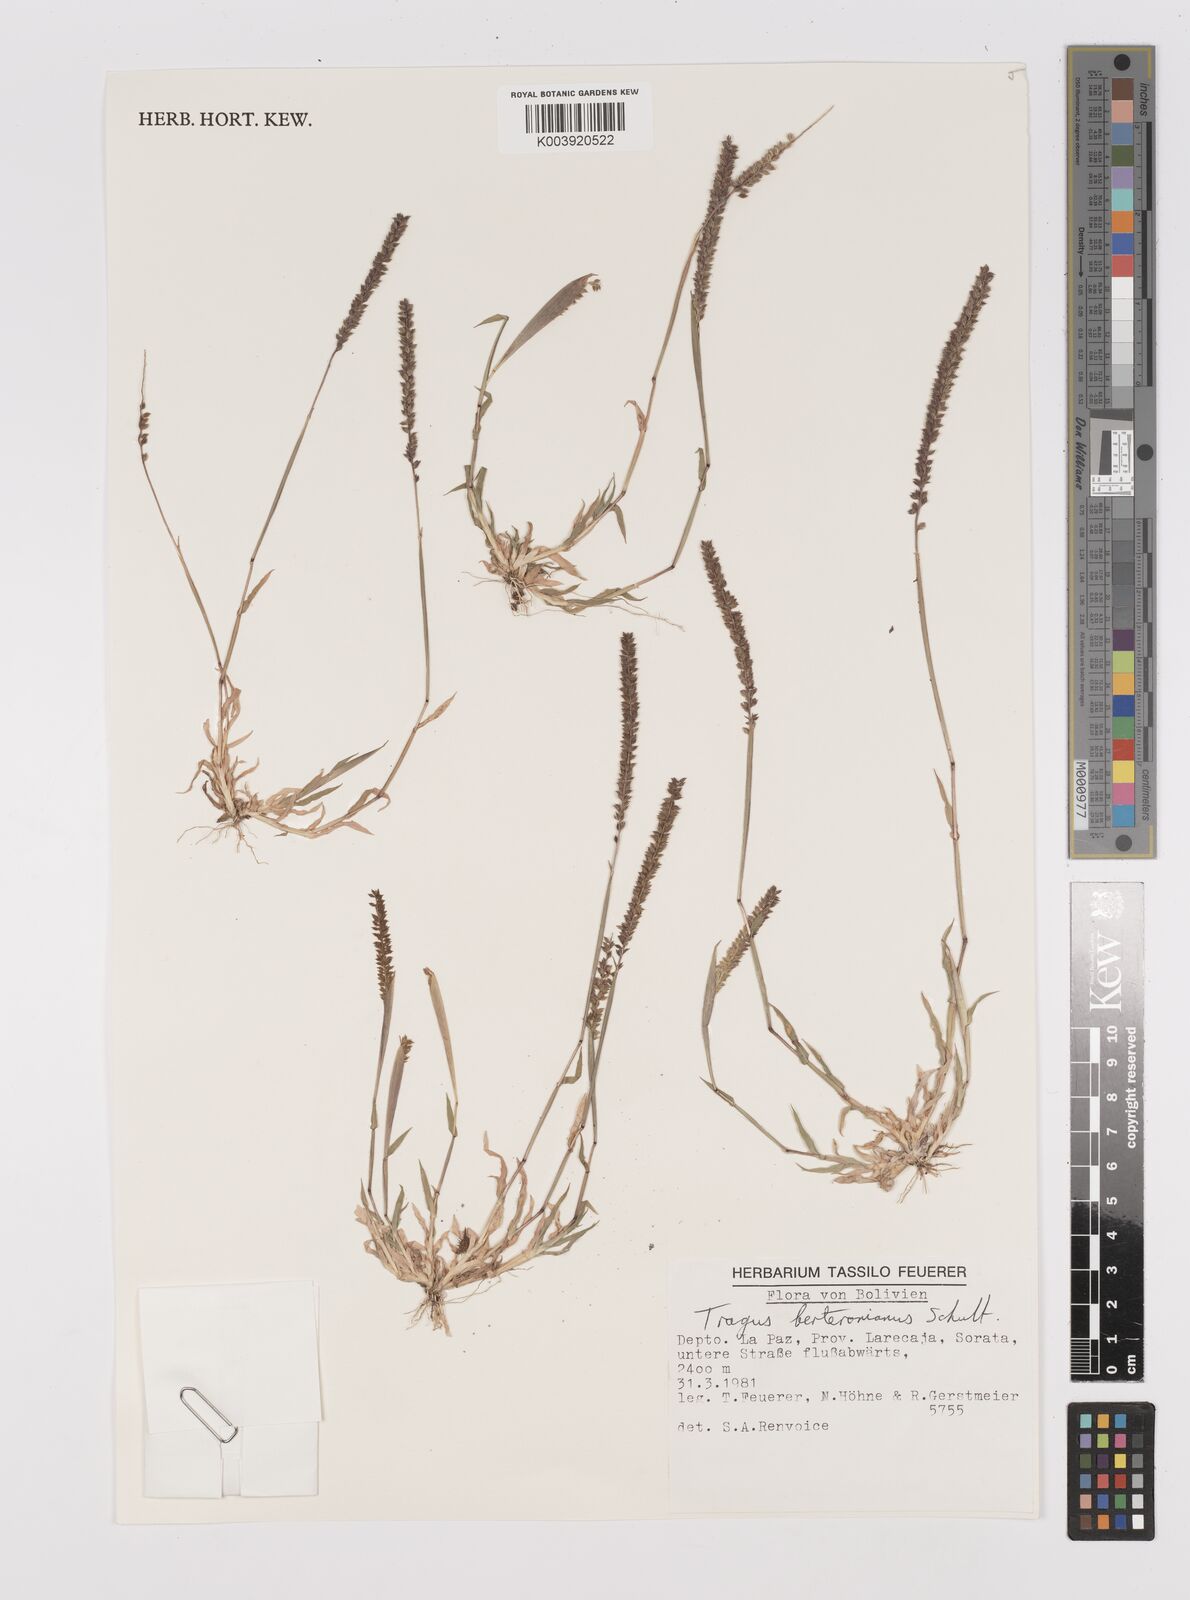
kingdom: Plantae
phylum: Tracheophyta
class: Liliopsida
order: Poales
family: Poaceae
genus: Tragus
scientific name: Tragus berteronianus
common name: African bur-grass
